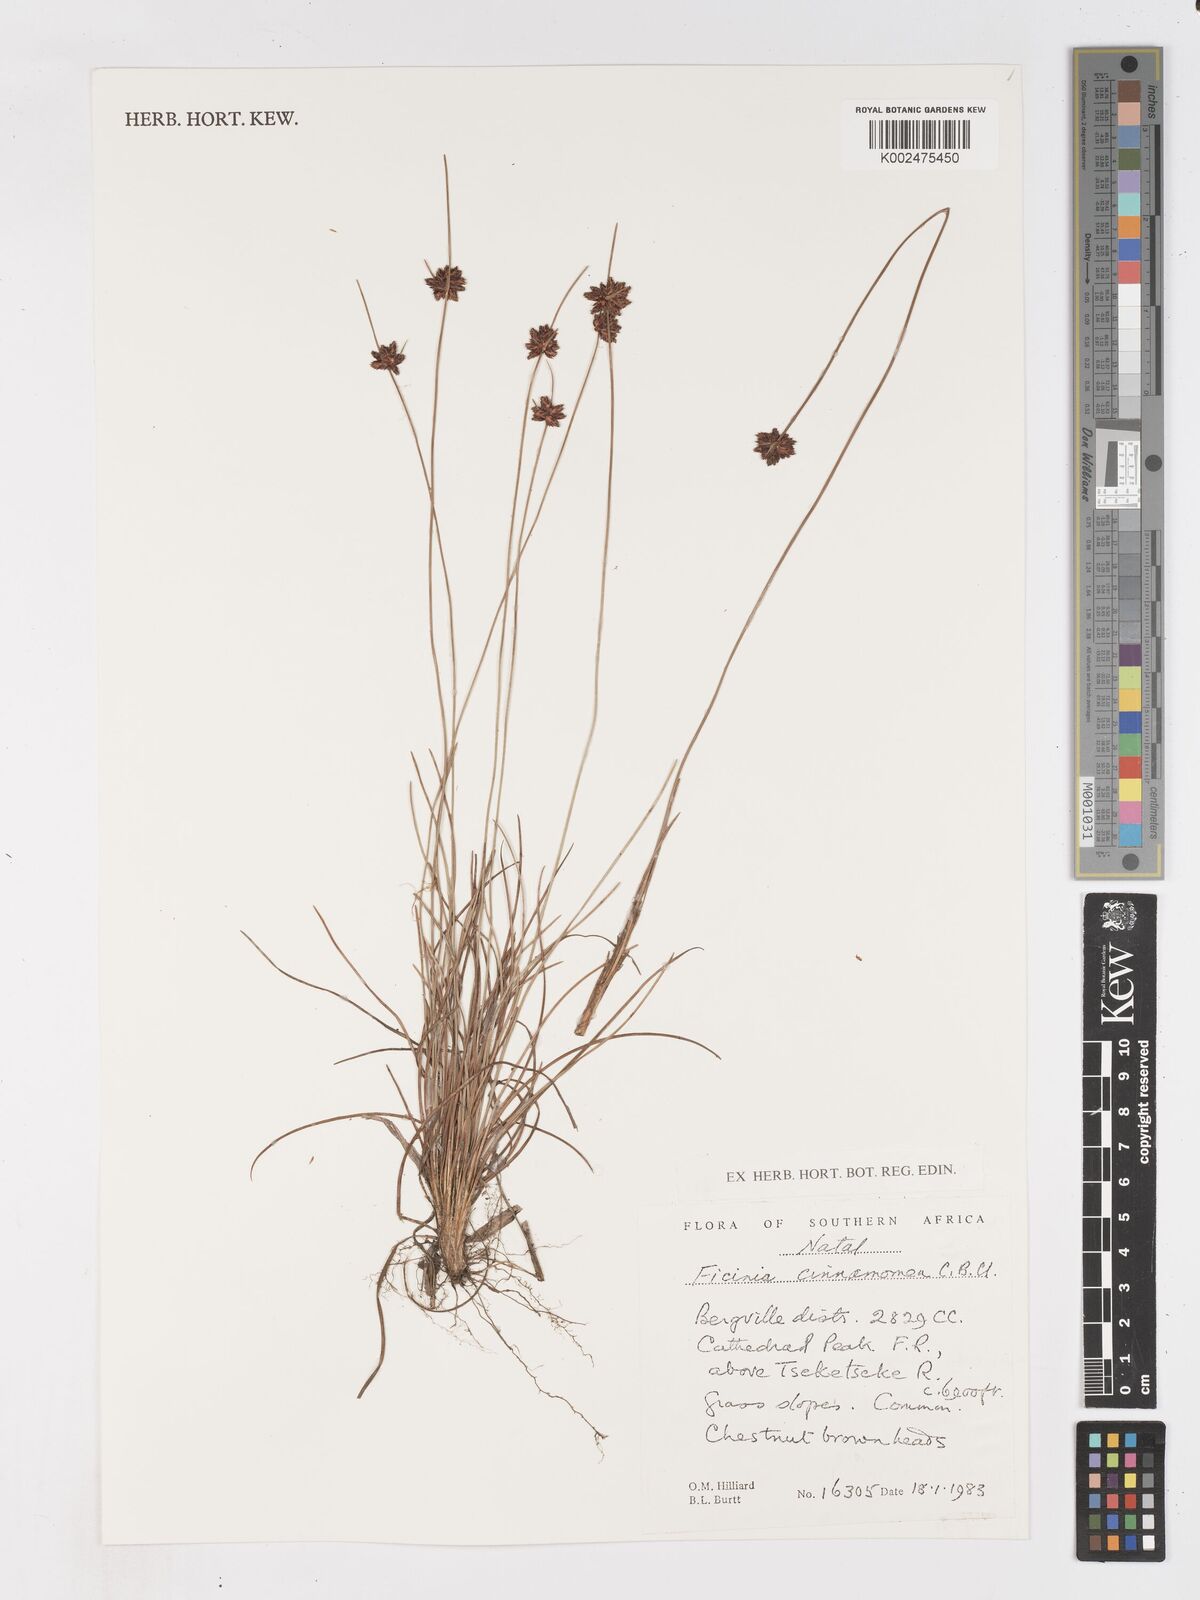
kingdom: Plantae
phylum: Tracheophyta
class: Liliopsida
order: Poales
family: Cyperaceae
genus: Ficinia
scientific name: Ficinia cinnamomea
